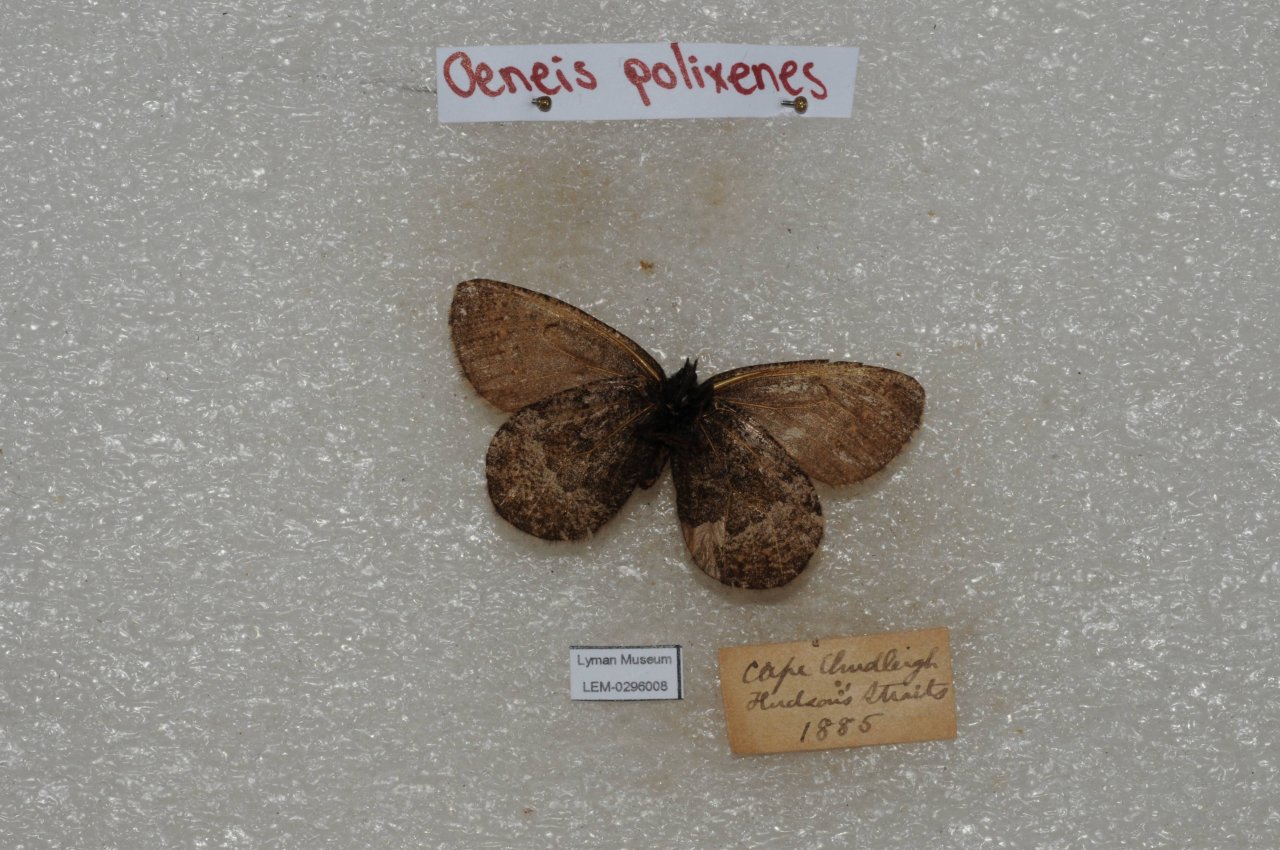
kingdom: Animalia
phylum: Arthropoda
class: Insecta
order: Lepidoptera
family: Nymphalidae
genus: Oeneis
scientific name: Oeneis bore
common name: Polixenes Arctic
